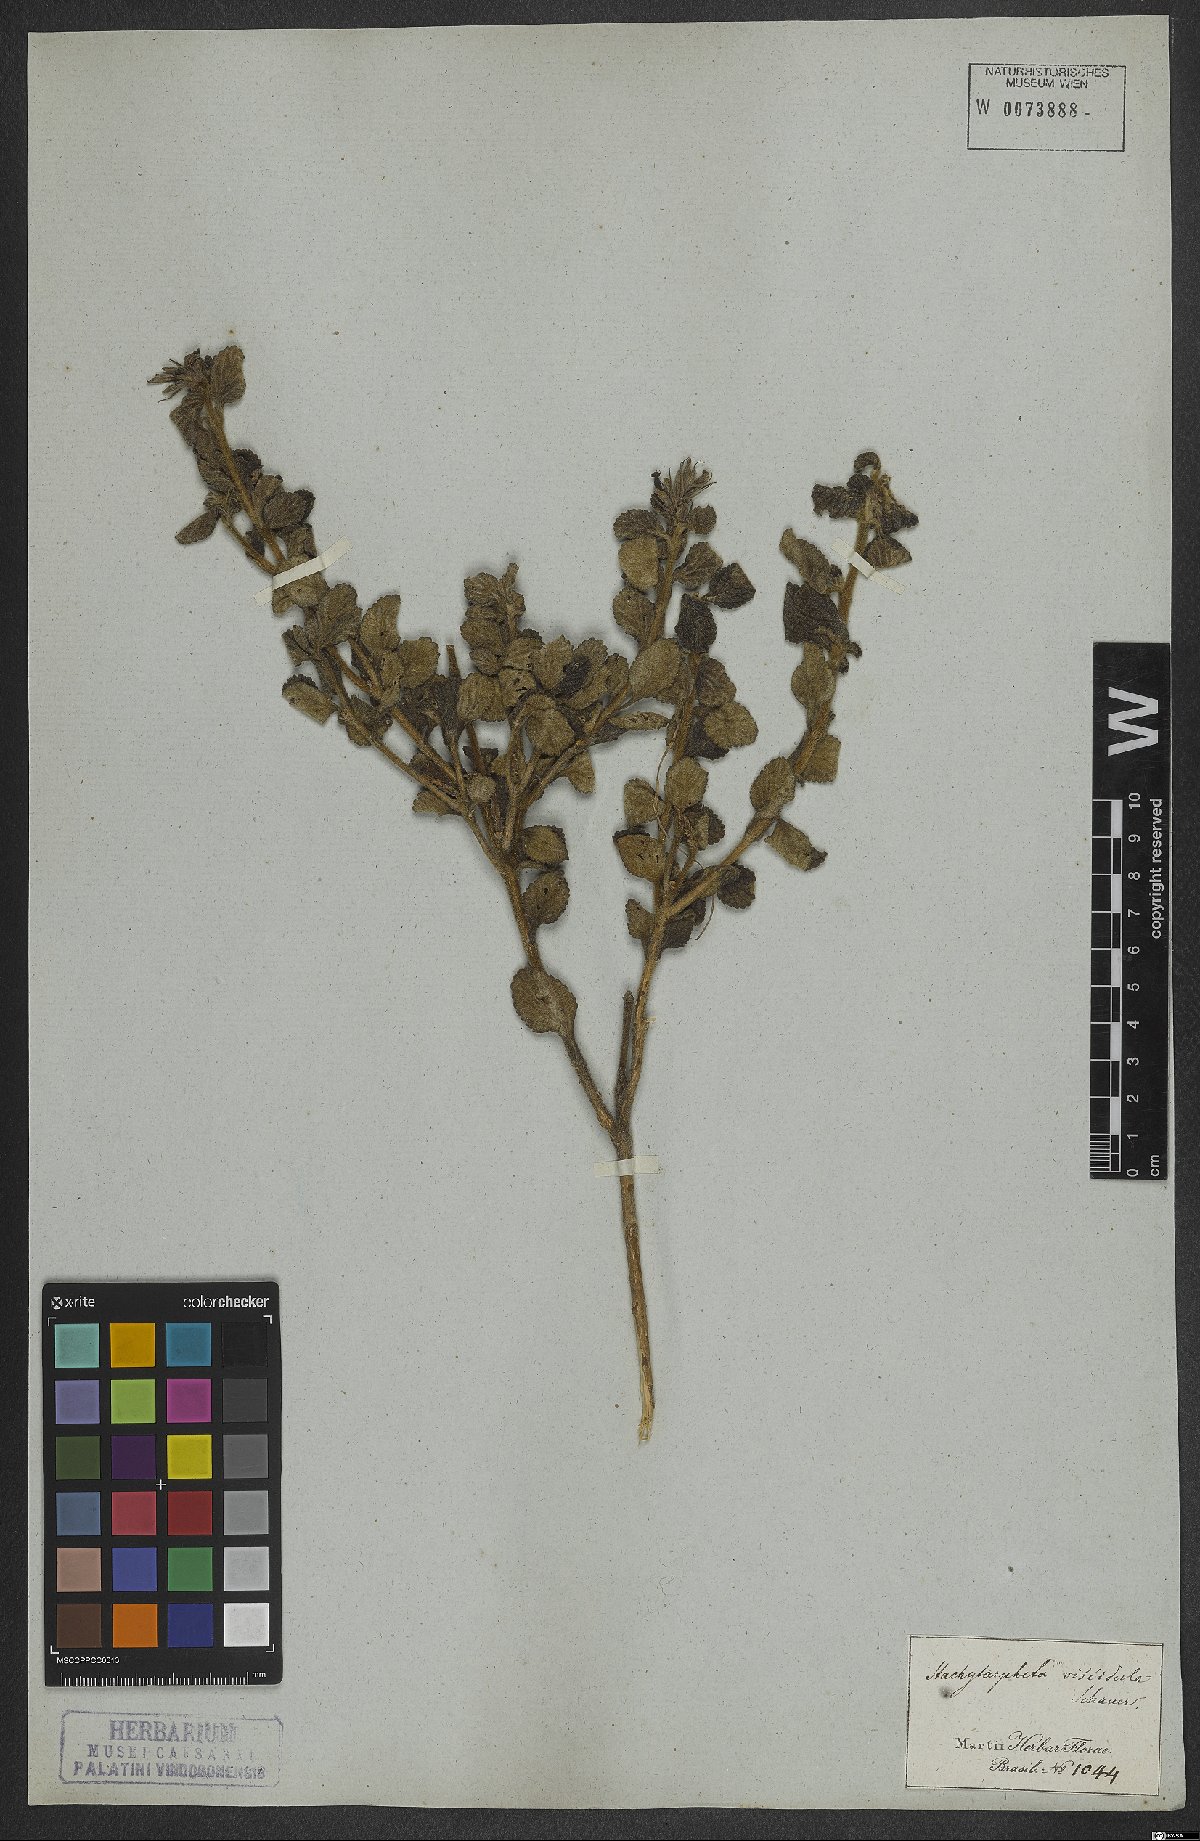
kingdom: Plantae
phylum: Tracheophyta
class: Magnoliopsida
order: Lamiales
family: Verbenaceae
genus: Stachytarpheta
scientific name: Stachytarpheta viscidula
